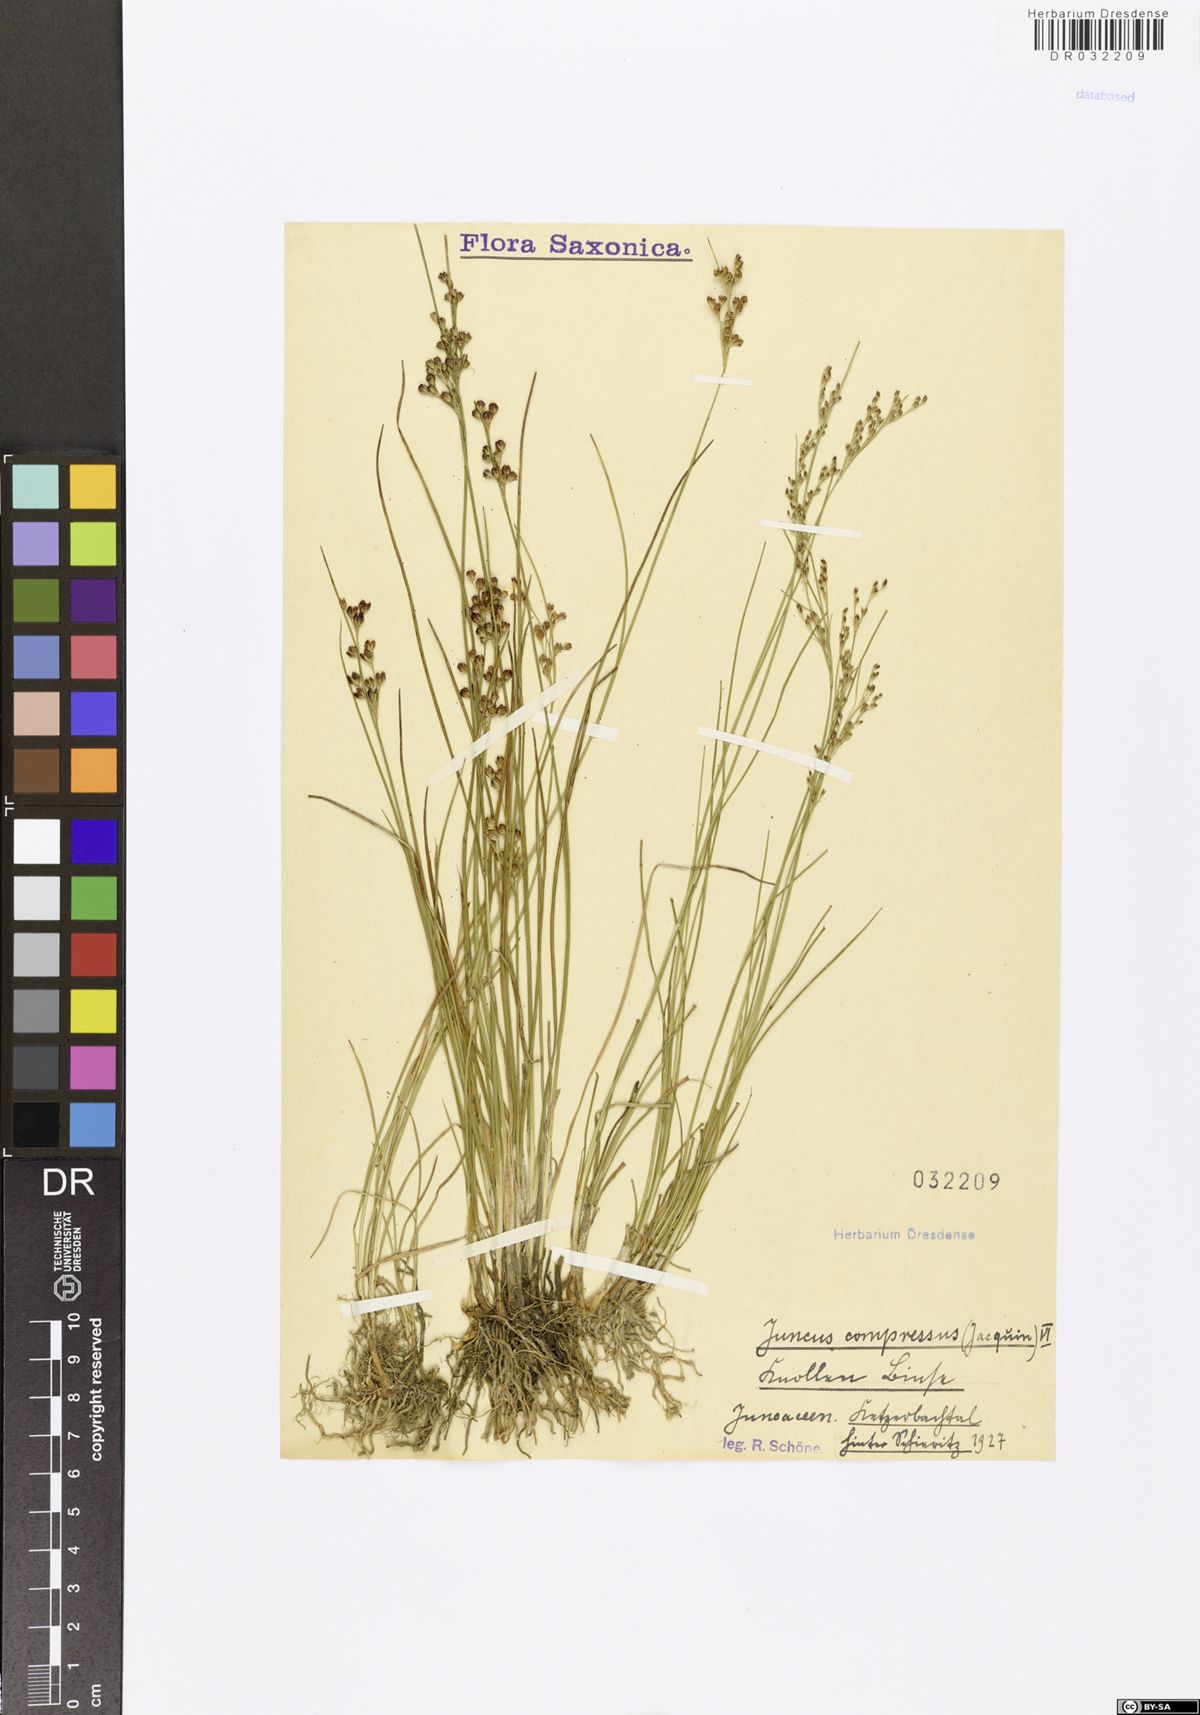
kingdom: Plantae
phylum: Tracheophyta
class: Liliopsida
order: Poales
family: Juncaceae
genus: Juncus
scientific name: Juncus compressus
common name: Round-fruited rush
